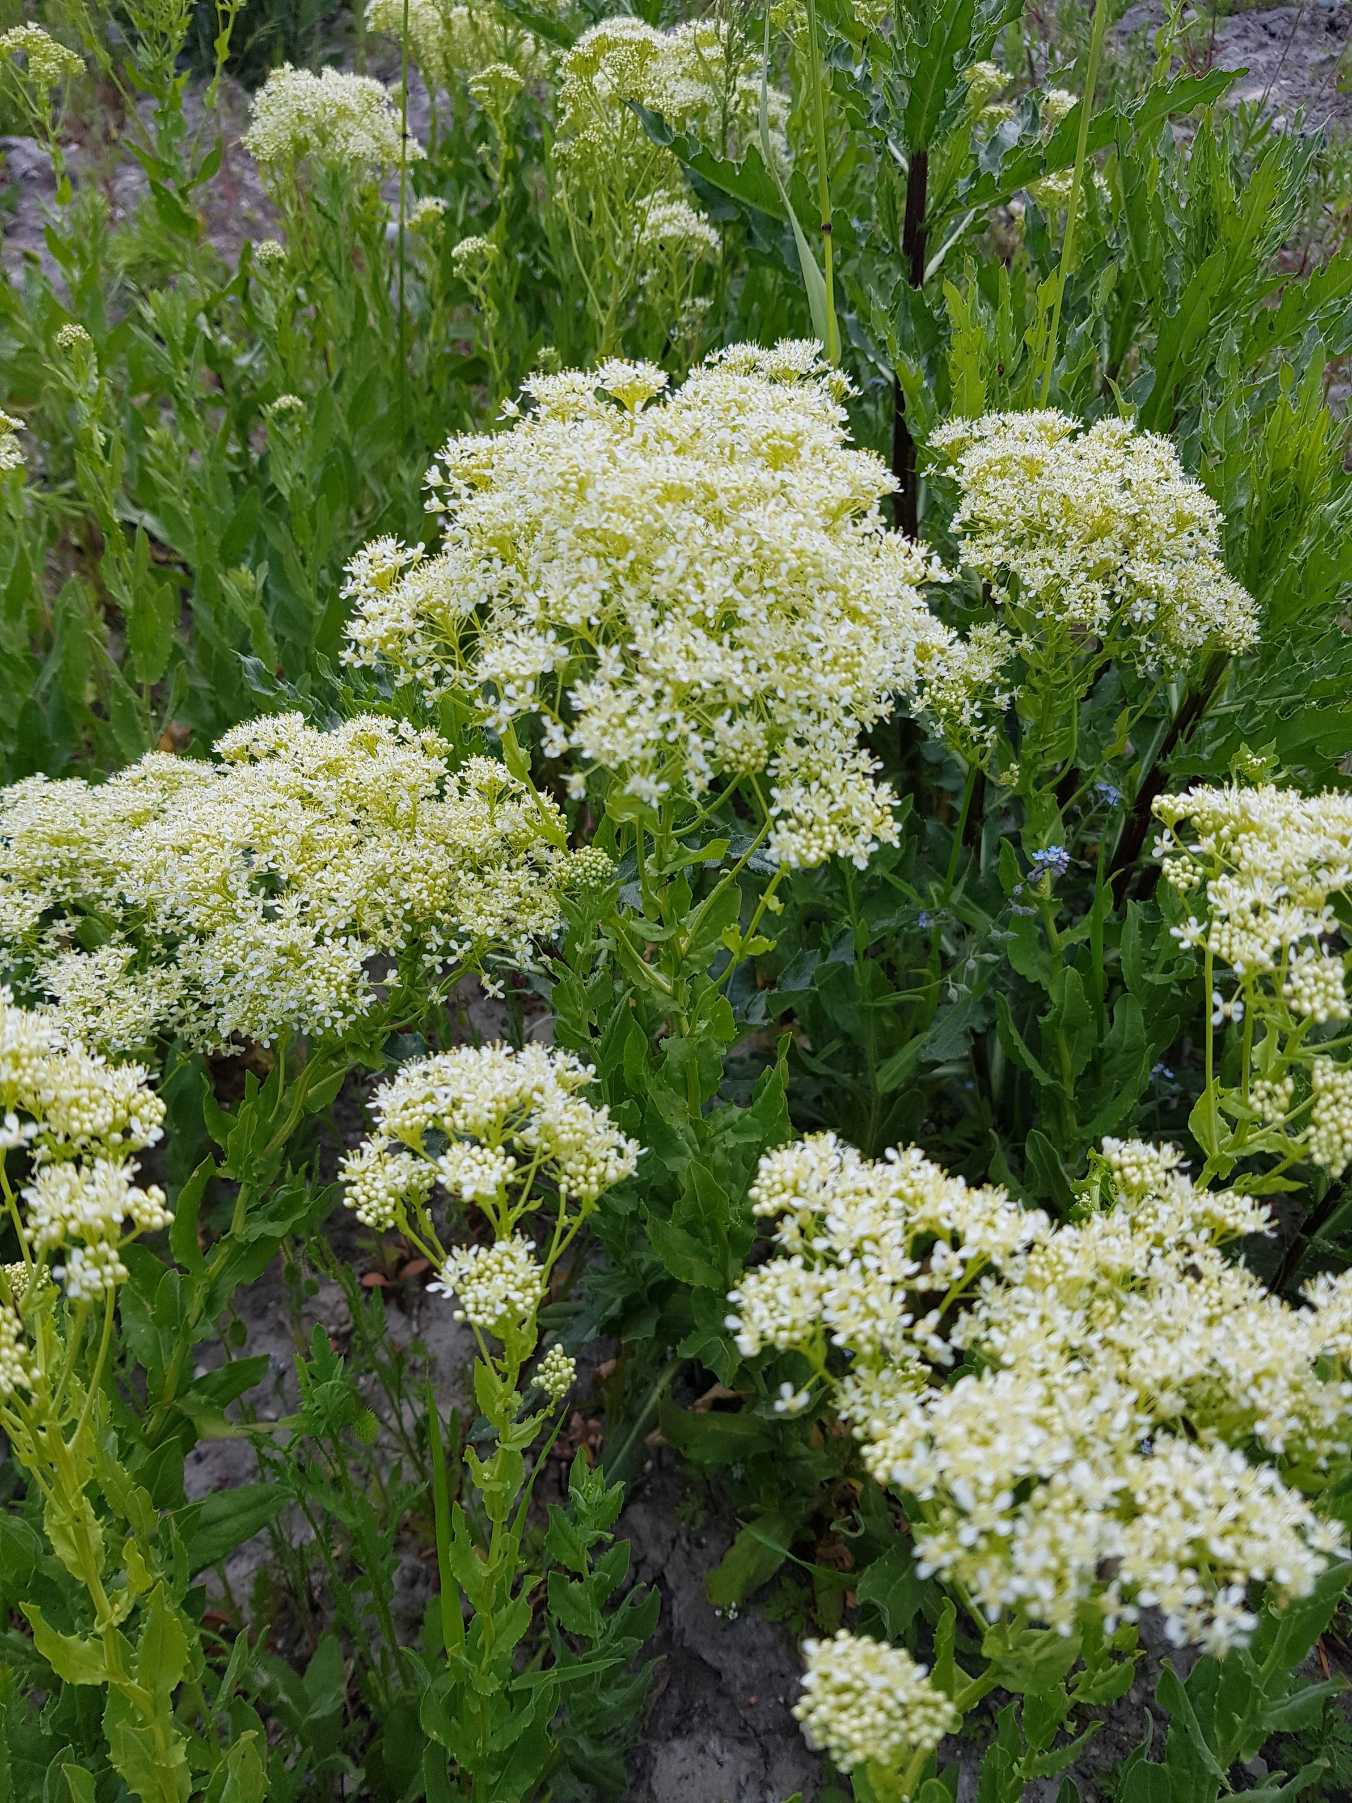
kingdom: Plantae
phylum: Tracheophyta
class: Magnoliopsida
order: Brassicales
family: Brassicaceae
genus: Lepidium
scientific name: Lepidium draba
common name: Hjerte-karse
